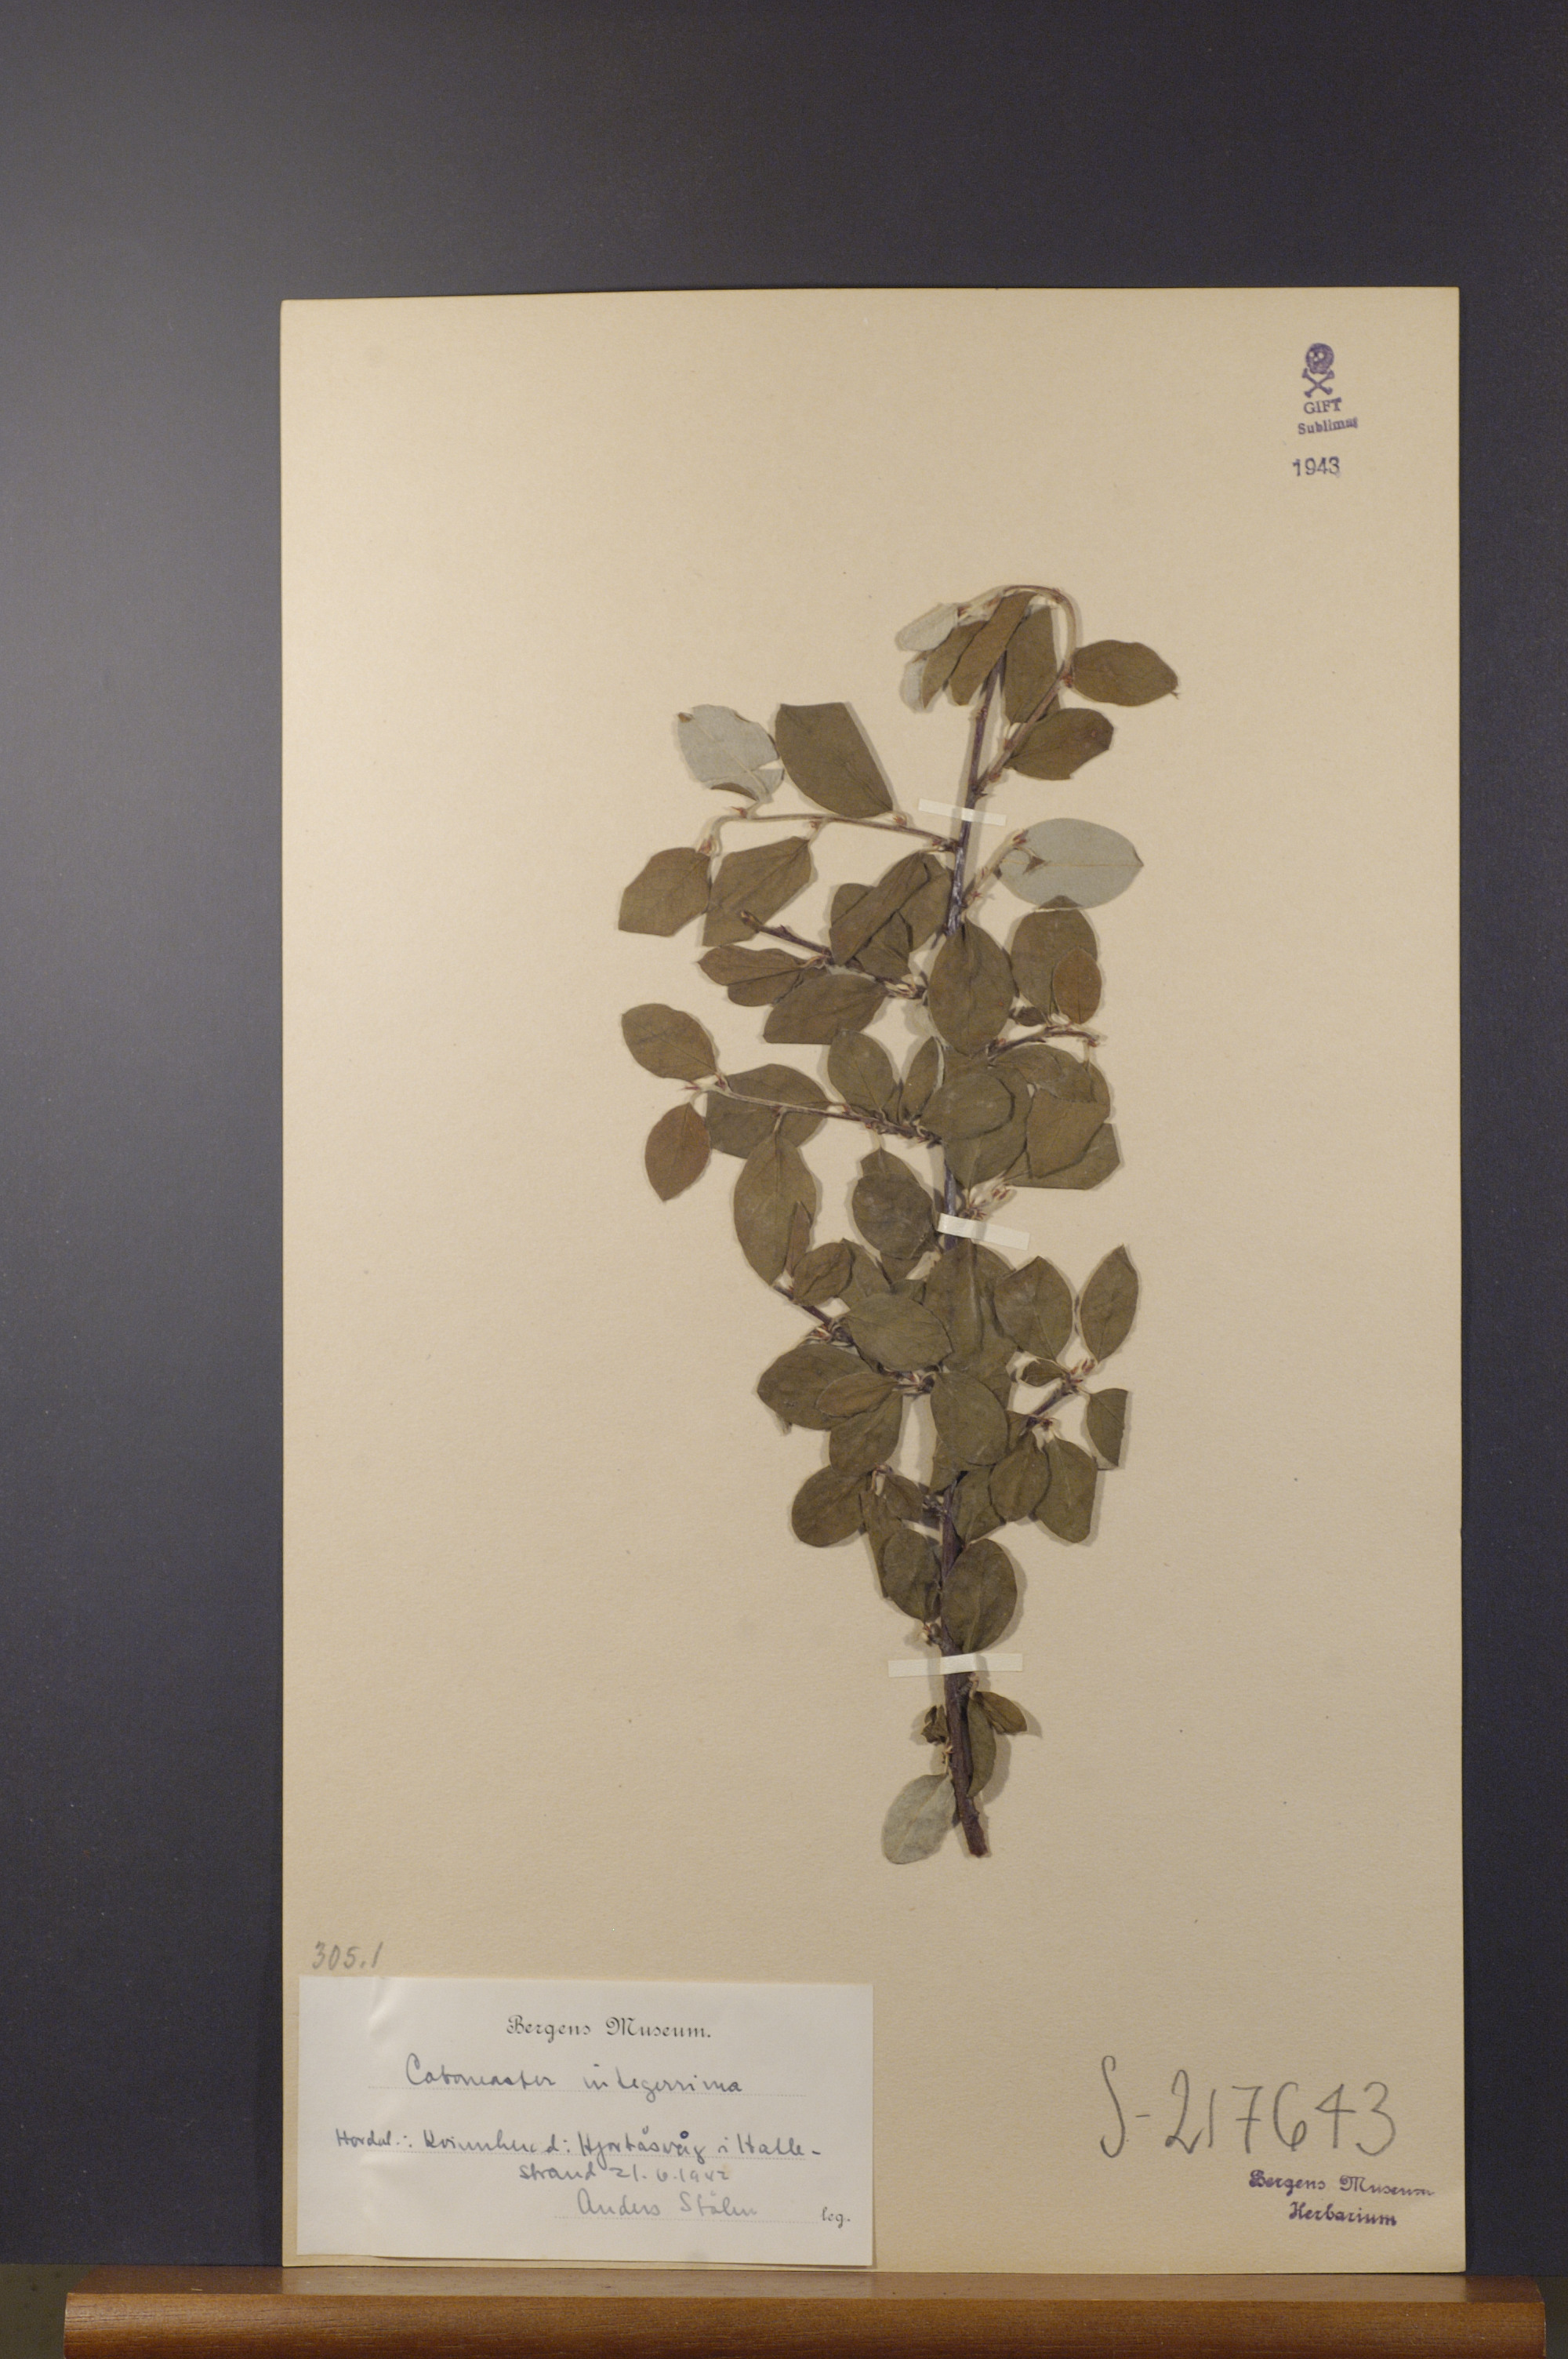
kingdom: Plantae
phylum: Tracheophyta
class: Magnoliopsida
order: Rosales
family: Rosaceae
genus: Cotoneaster
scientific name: Cotoneaster integerrimus
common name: Wild cotoneaster
